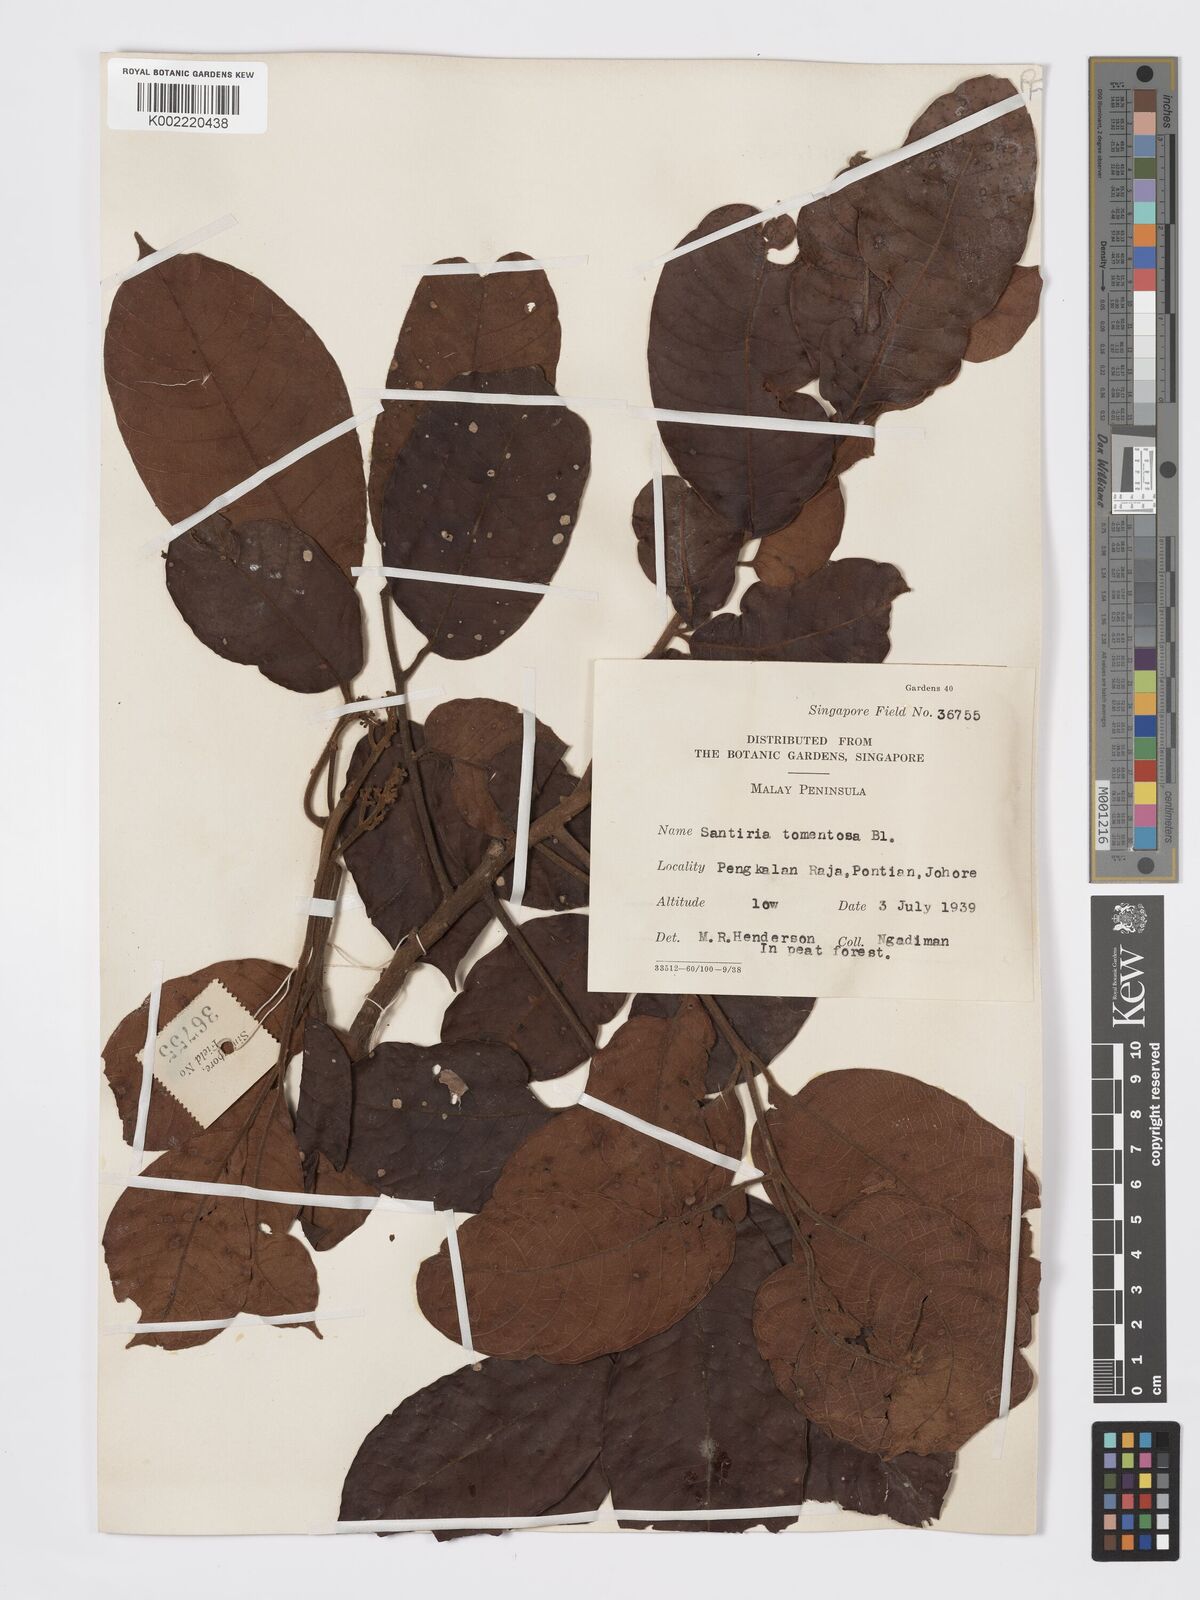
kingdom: Plantae
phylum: Tracheophyta
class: Magnoliopsida
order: Sapindales
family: Burseraceae
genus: Santiria
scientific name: Santiria tomentosa
